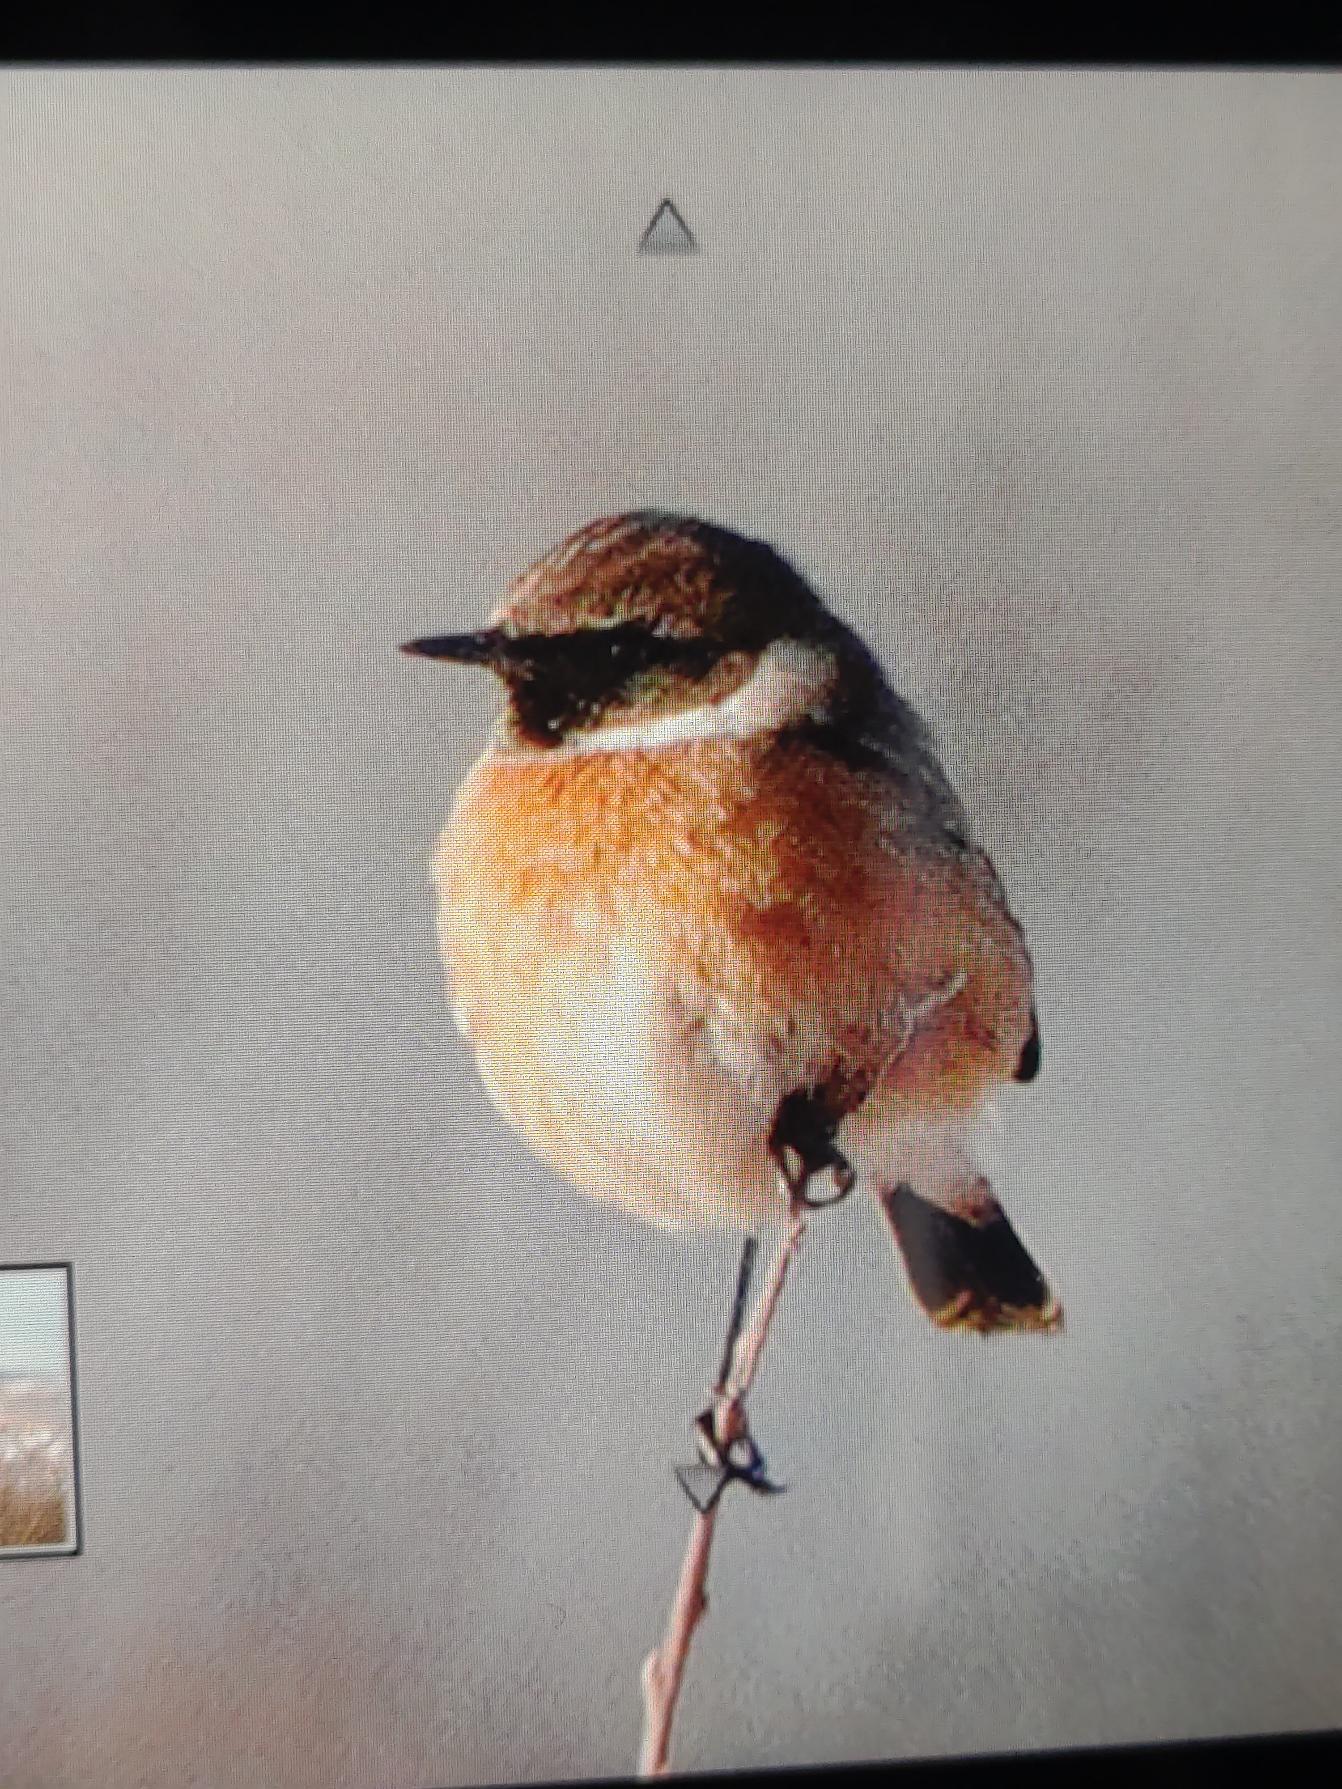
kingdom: Animalia
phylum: Chordata
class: Aves
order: Passeriformes
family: Muscicapidae
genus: Saxicola
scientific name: Saxicola rubicola
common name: Sortstrubet bynkefugl
